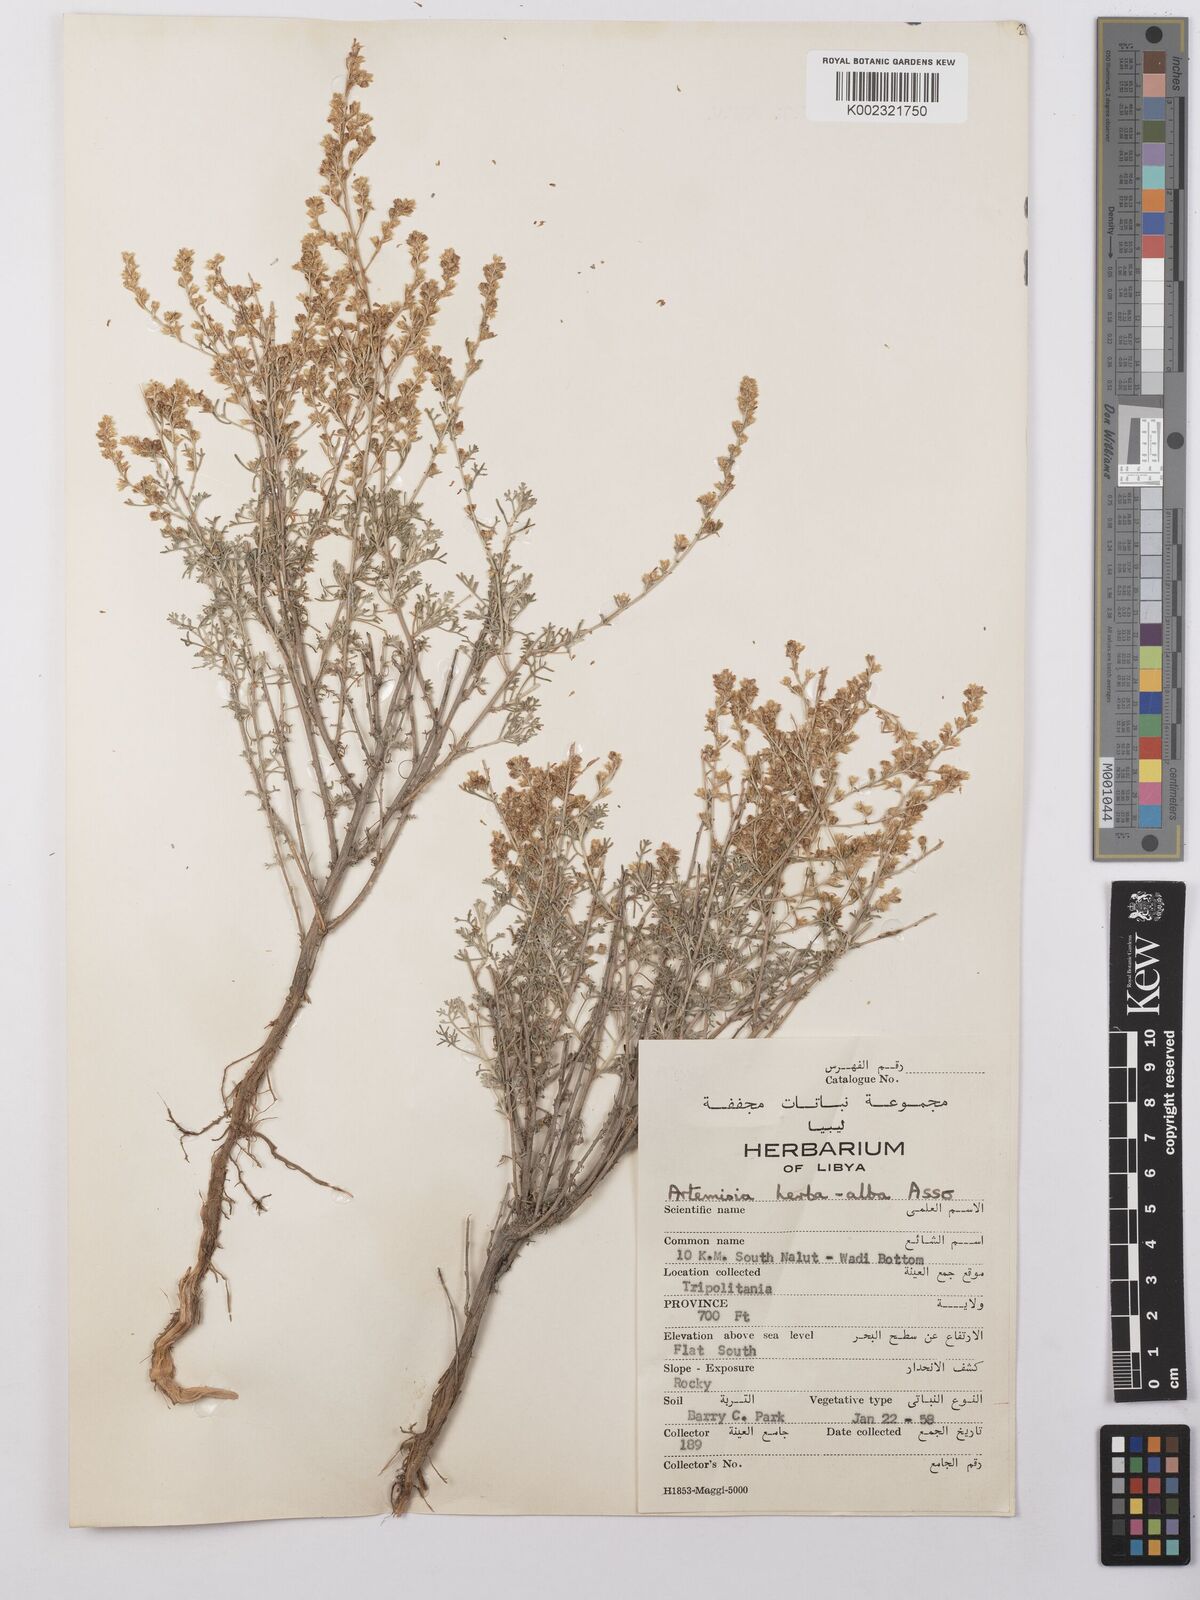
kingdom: Plantae
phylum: Tracheophyta
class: Magnoliopsida
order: Asterales
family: Asteraceae
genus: Artemisia
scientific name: Artemisia herba-alba
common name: White wormwood
